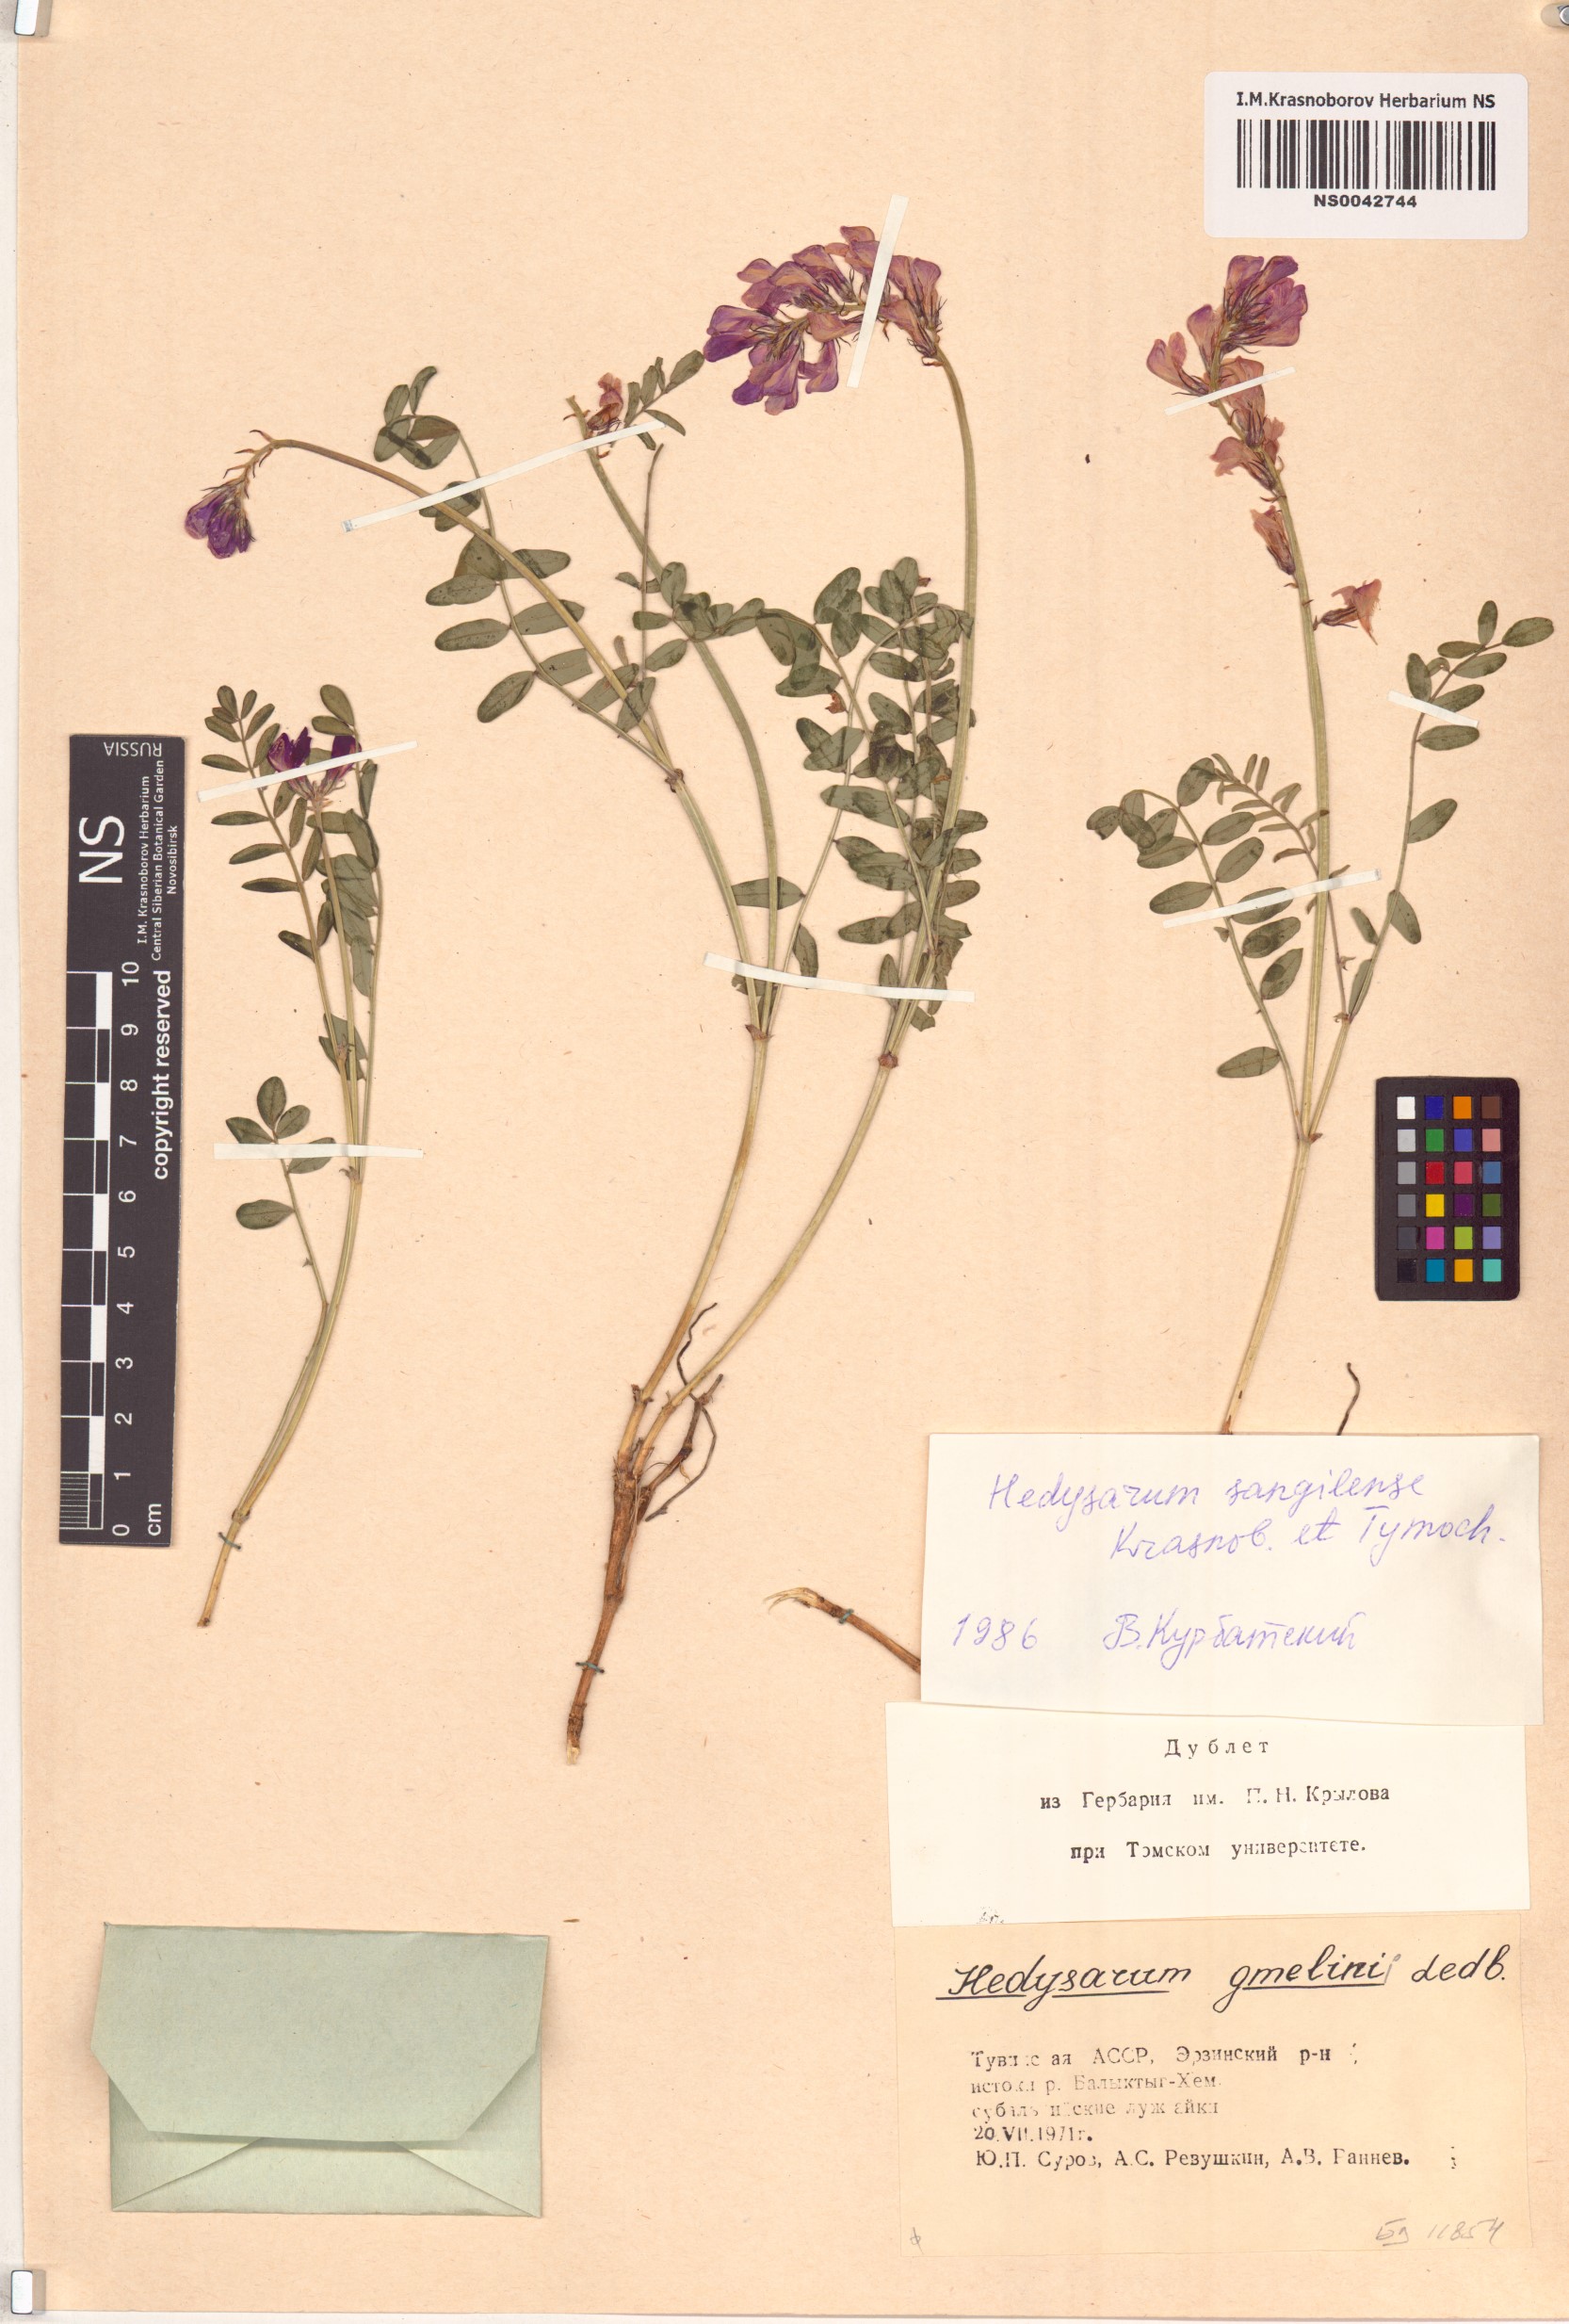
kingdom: Plantae
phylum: Tracheophyta
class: Magnoliopsida
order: Fabales
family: Fabaceae
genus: Hedysarum
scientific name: Hedysarum sangilense
